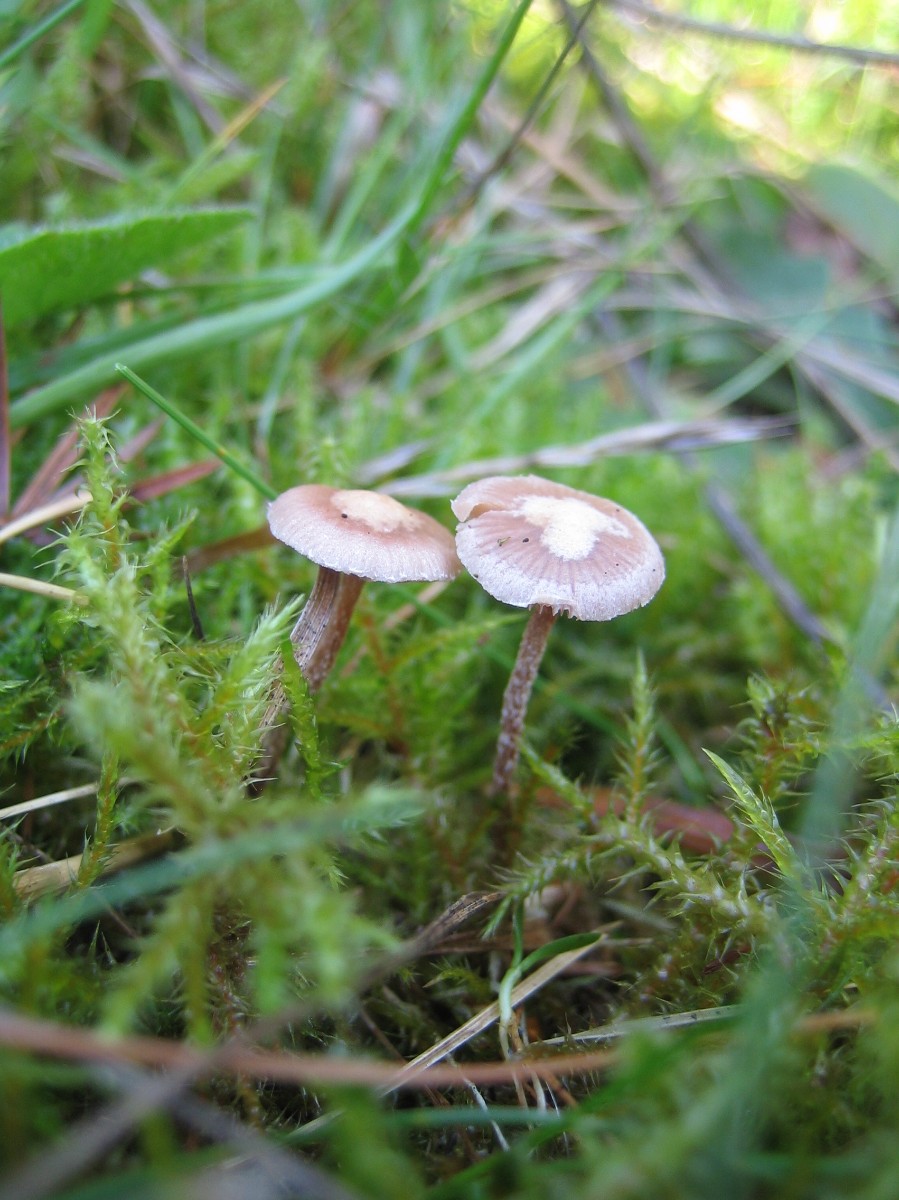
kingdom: Fungi
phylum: Basidiomycota
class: Agaricomycetes
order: Agaricales
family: Strophariaceae
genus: Deconica
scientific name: Deconica
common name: stråhat
